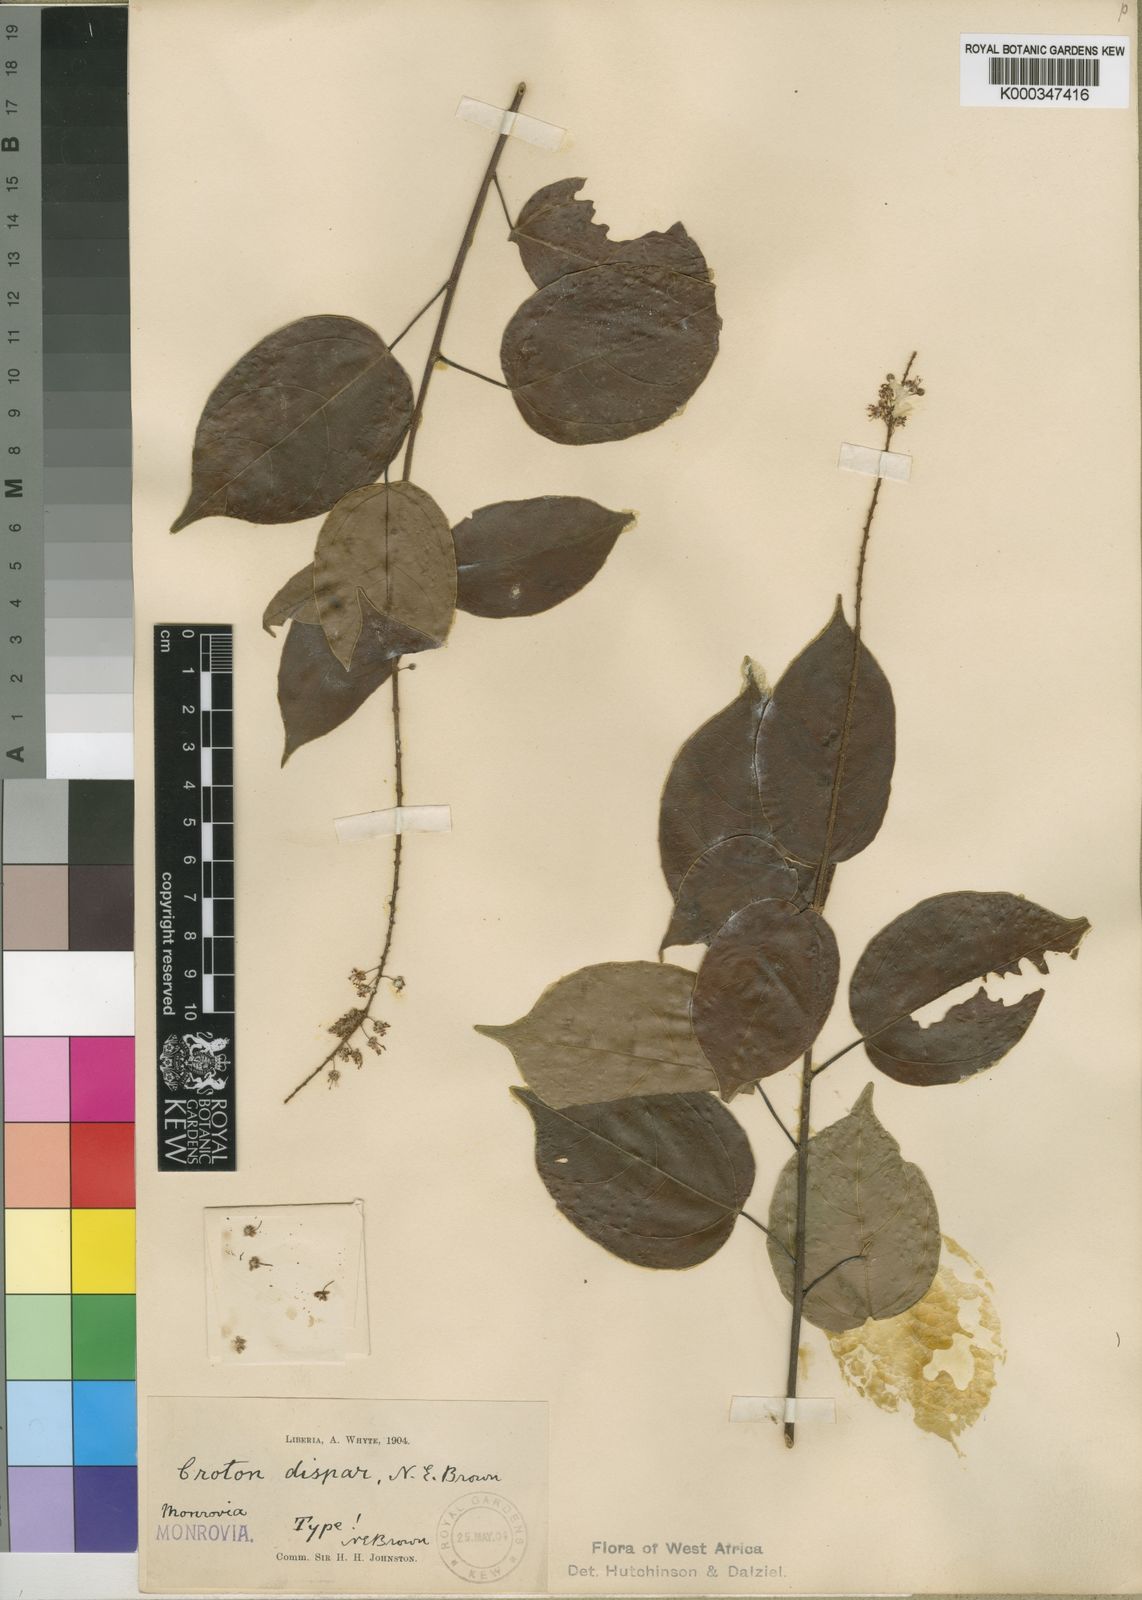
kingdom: Plantae
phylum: Tracheophyta
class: Magnoliopsida
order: Malpighiales
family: Euphorbiaceae
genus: Croton
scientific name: Croton dispar
